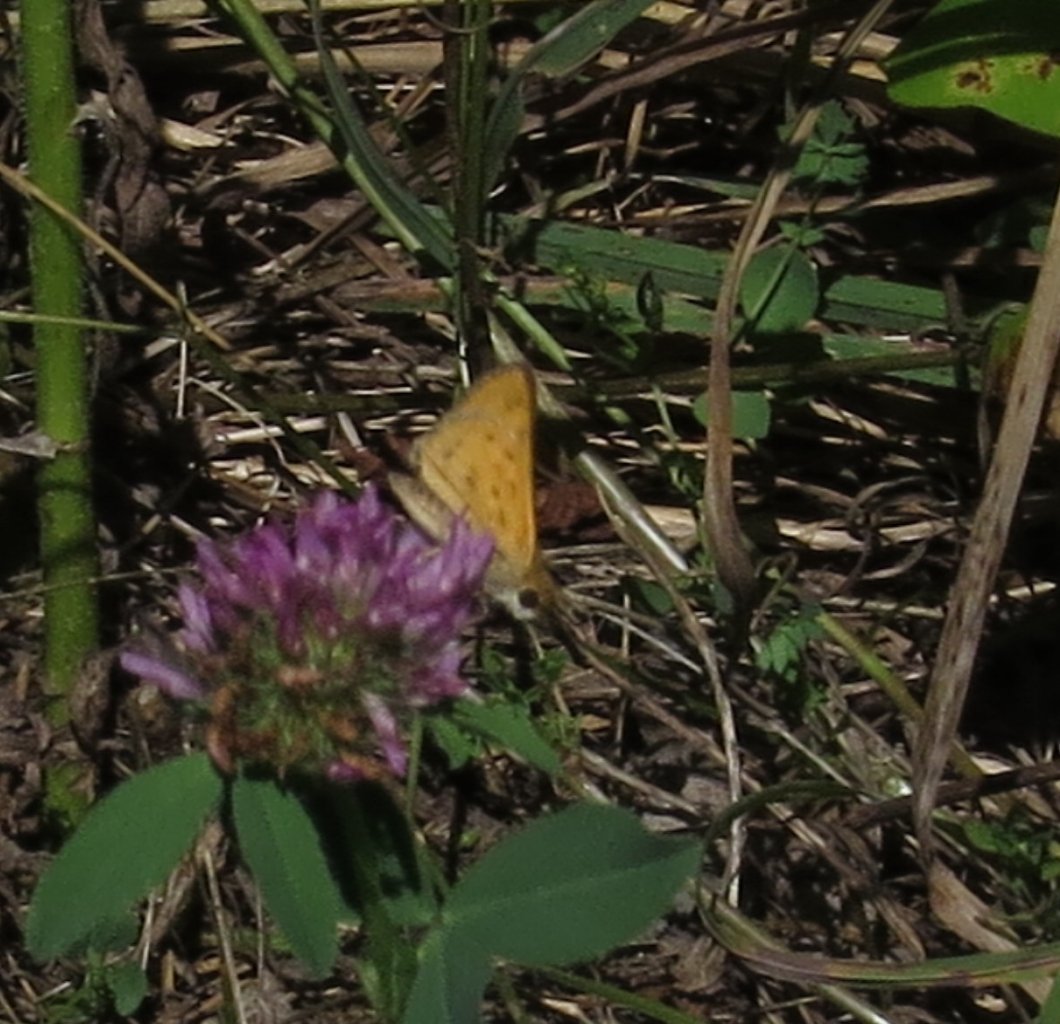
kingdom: Animalia
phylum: Arthropoda
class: Insecta
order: Lepidoptera
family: Hesperiidae
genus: Hylephila
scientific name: Hylephila phyleus
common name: Fiery Skipper
